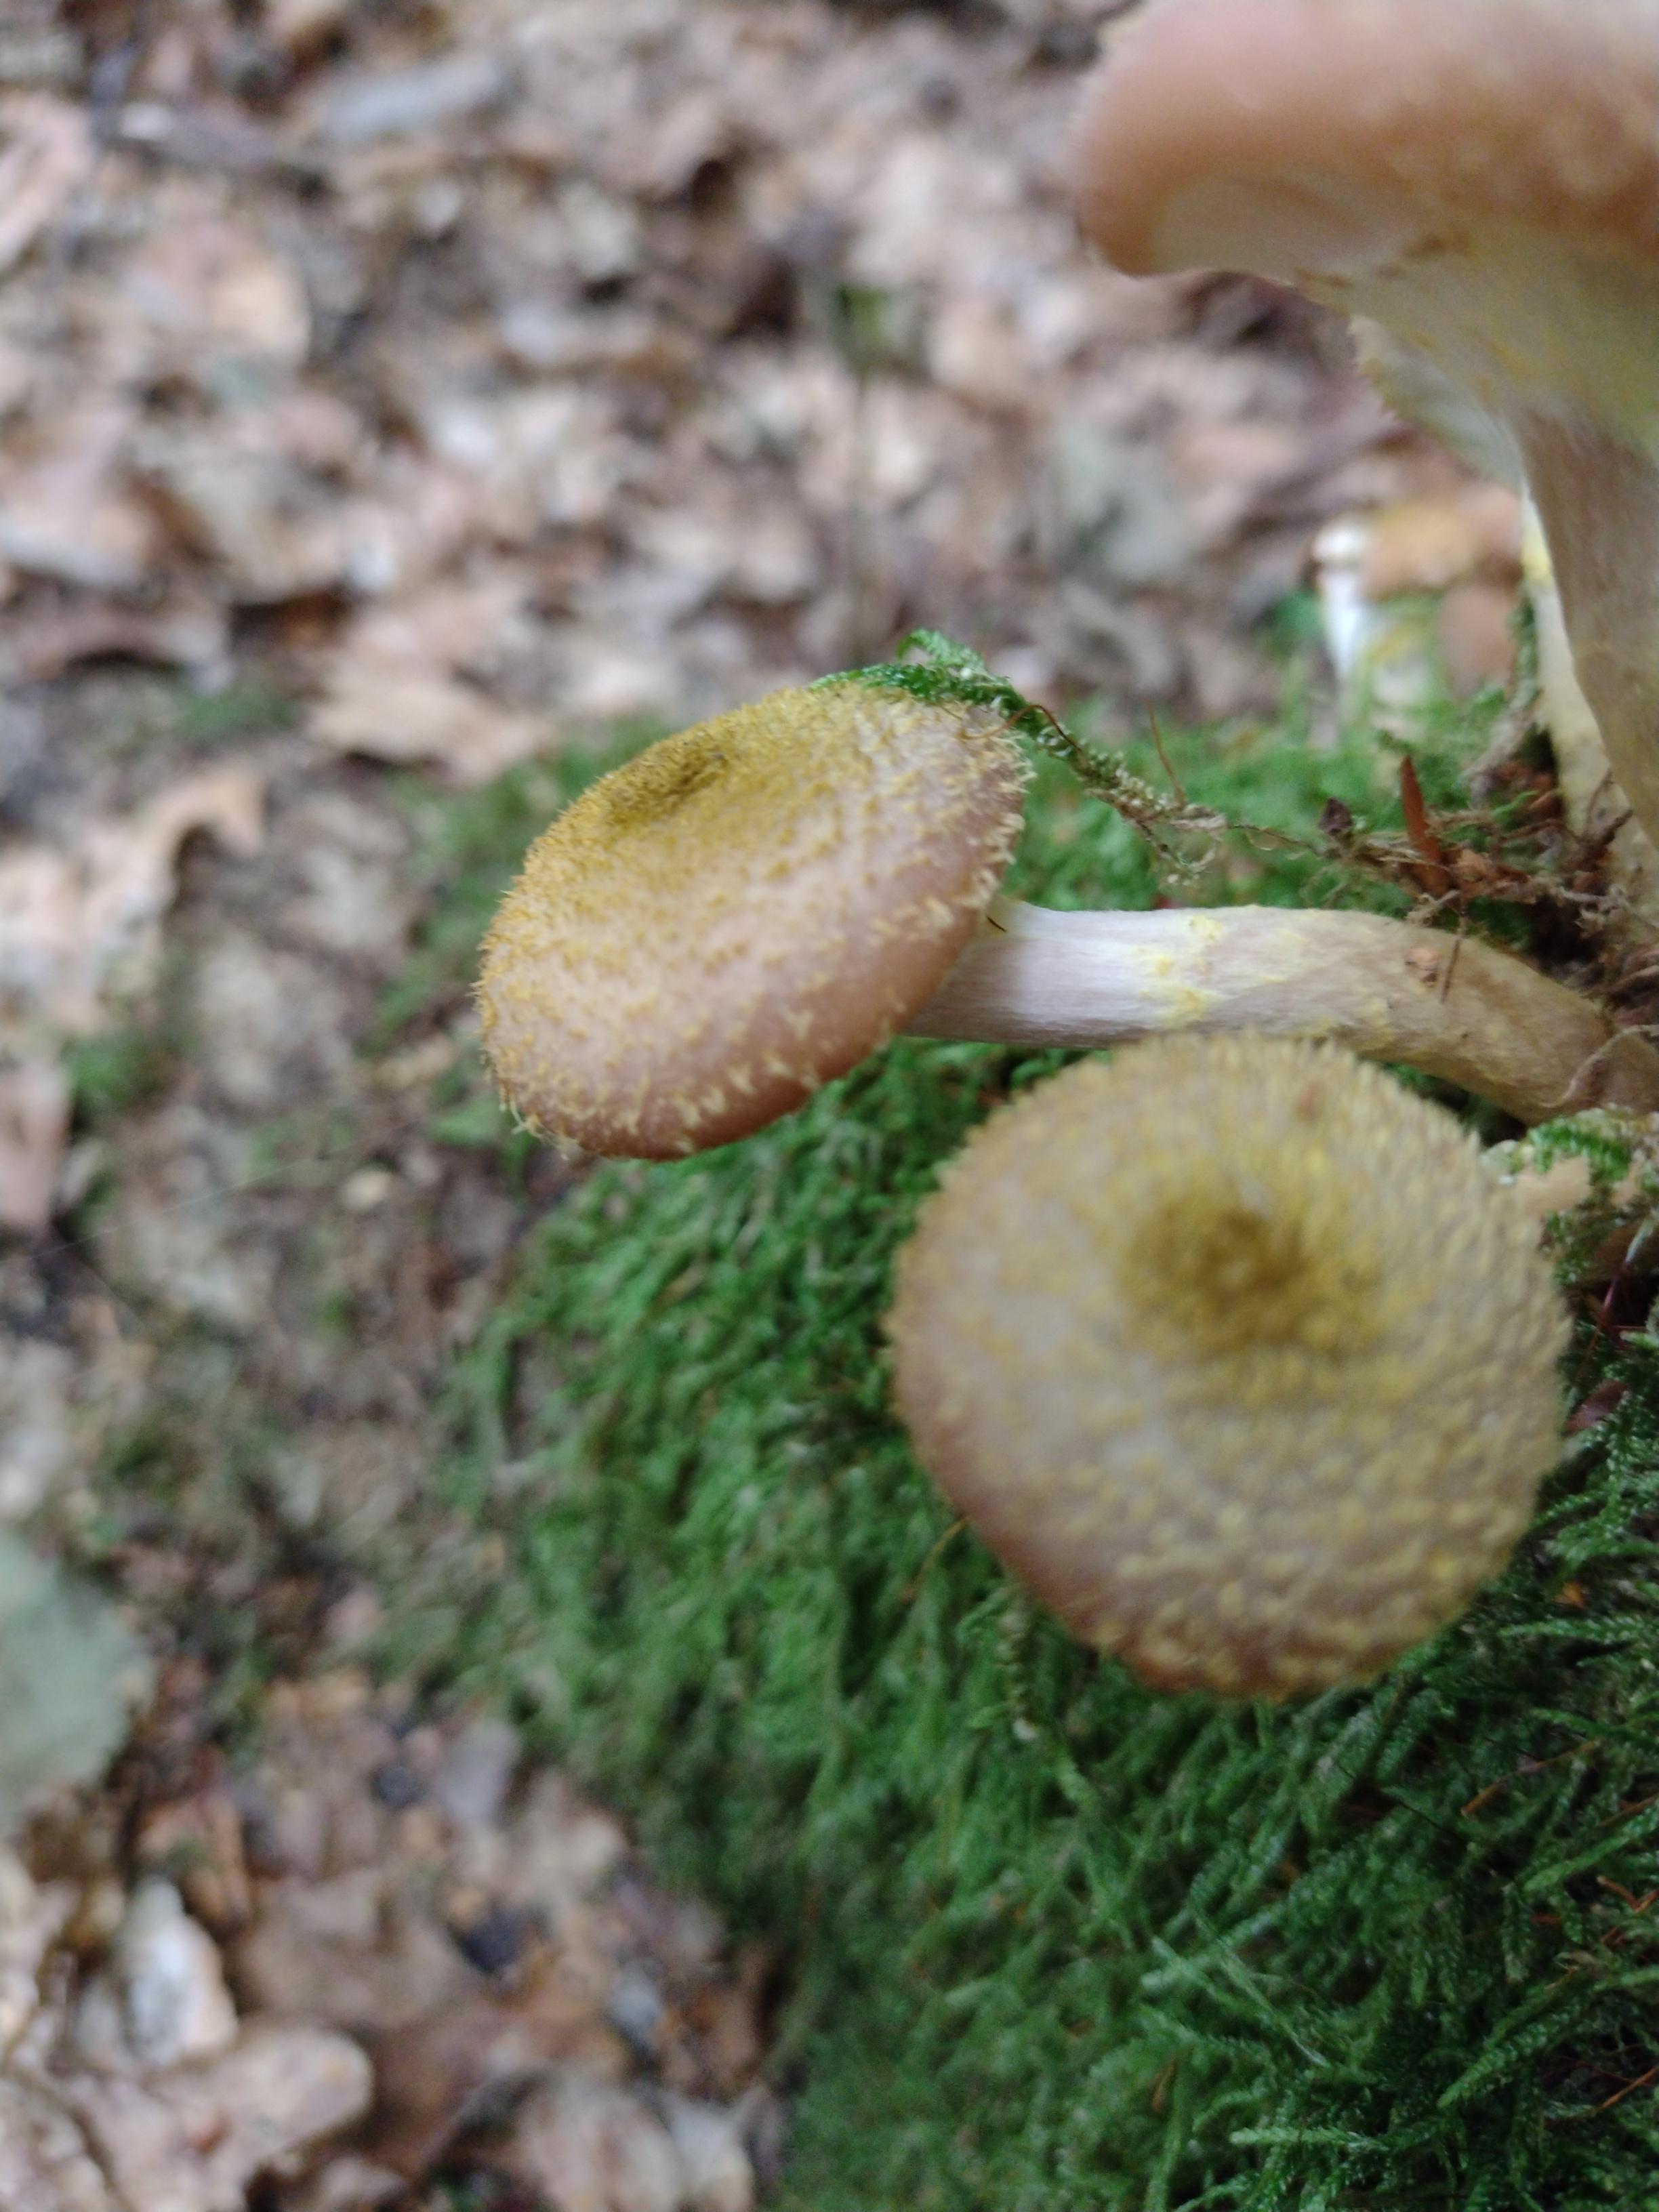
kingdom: Fungi
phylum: Basidiomycota
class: Agaricomycetes
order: Agaricales
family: Physalacriaceae
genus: Armillaria
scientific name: Armillaria
